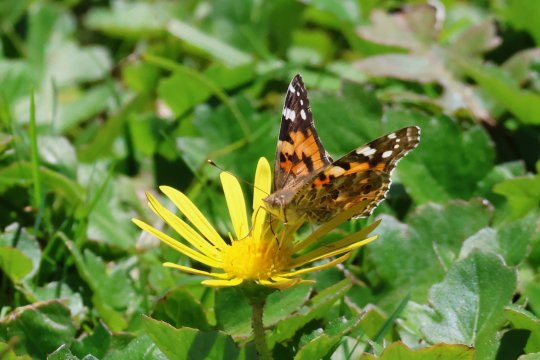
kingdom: Animalia
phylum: Arthropoda
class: Insecta
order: Lepidoptera
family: Nymphalidae
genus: Vanessa
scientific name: Vanessa cardui
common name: Painted Lady
